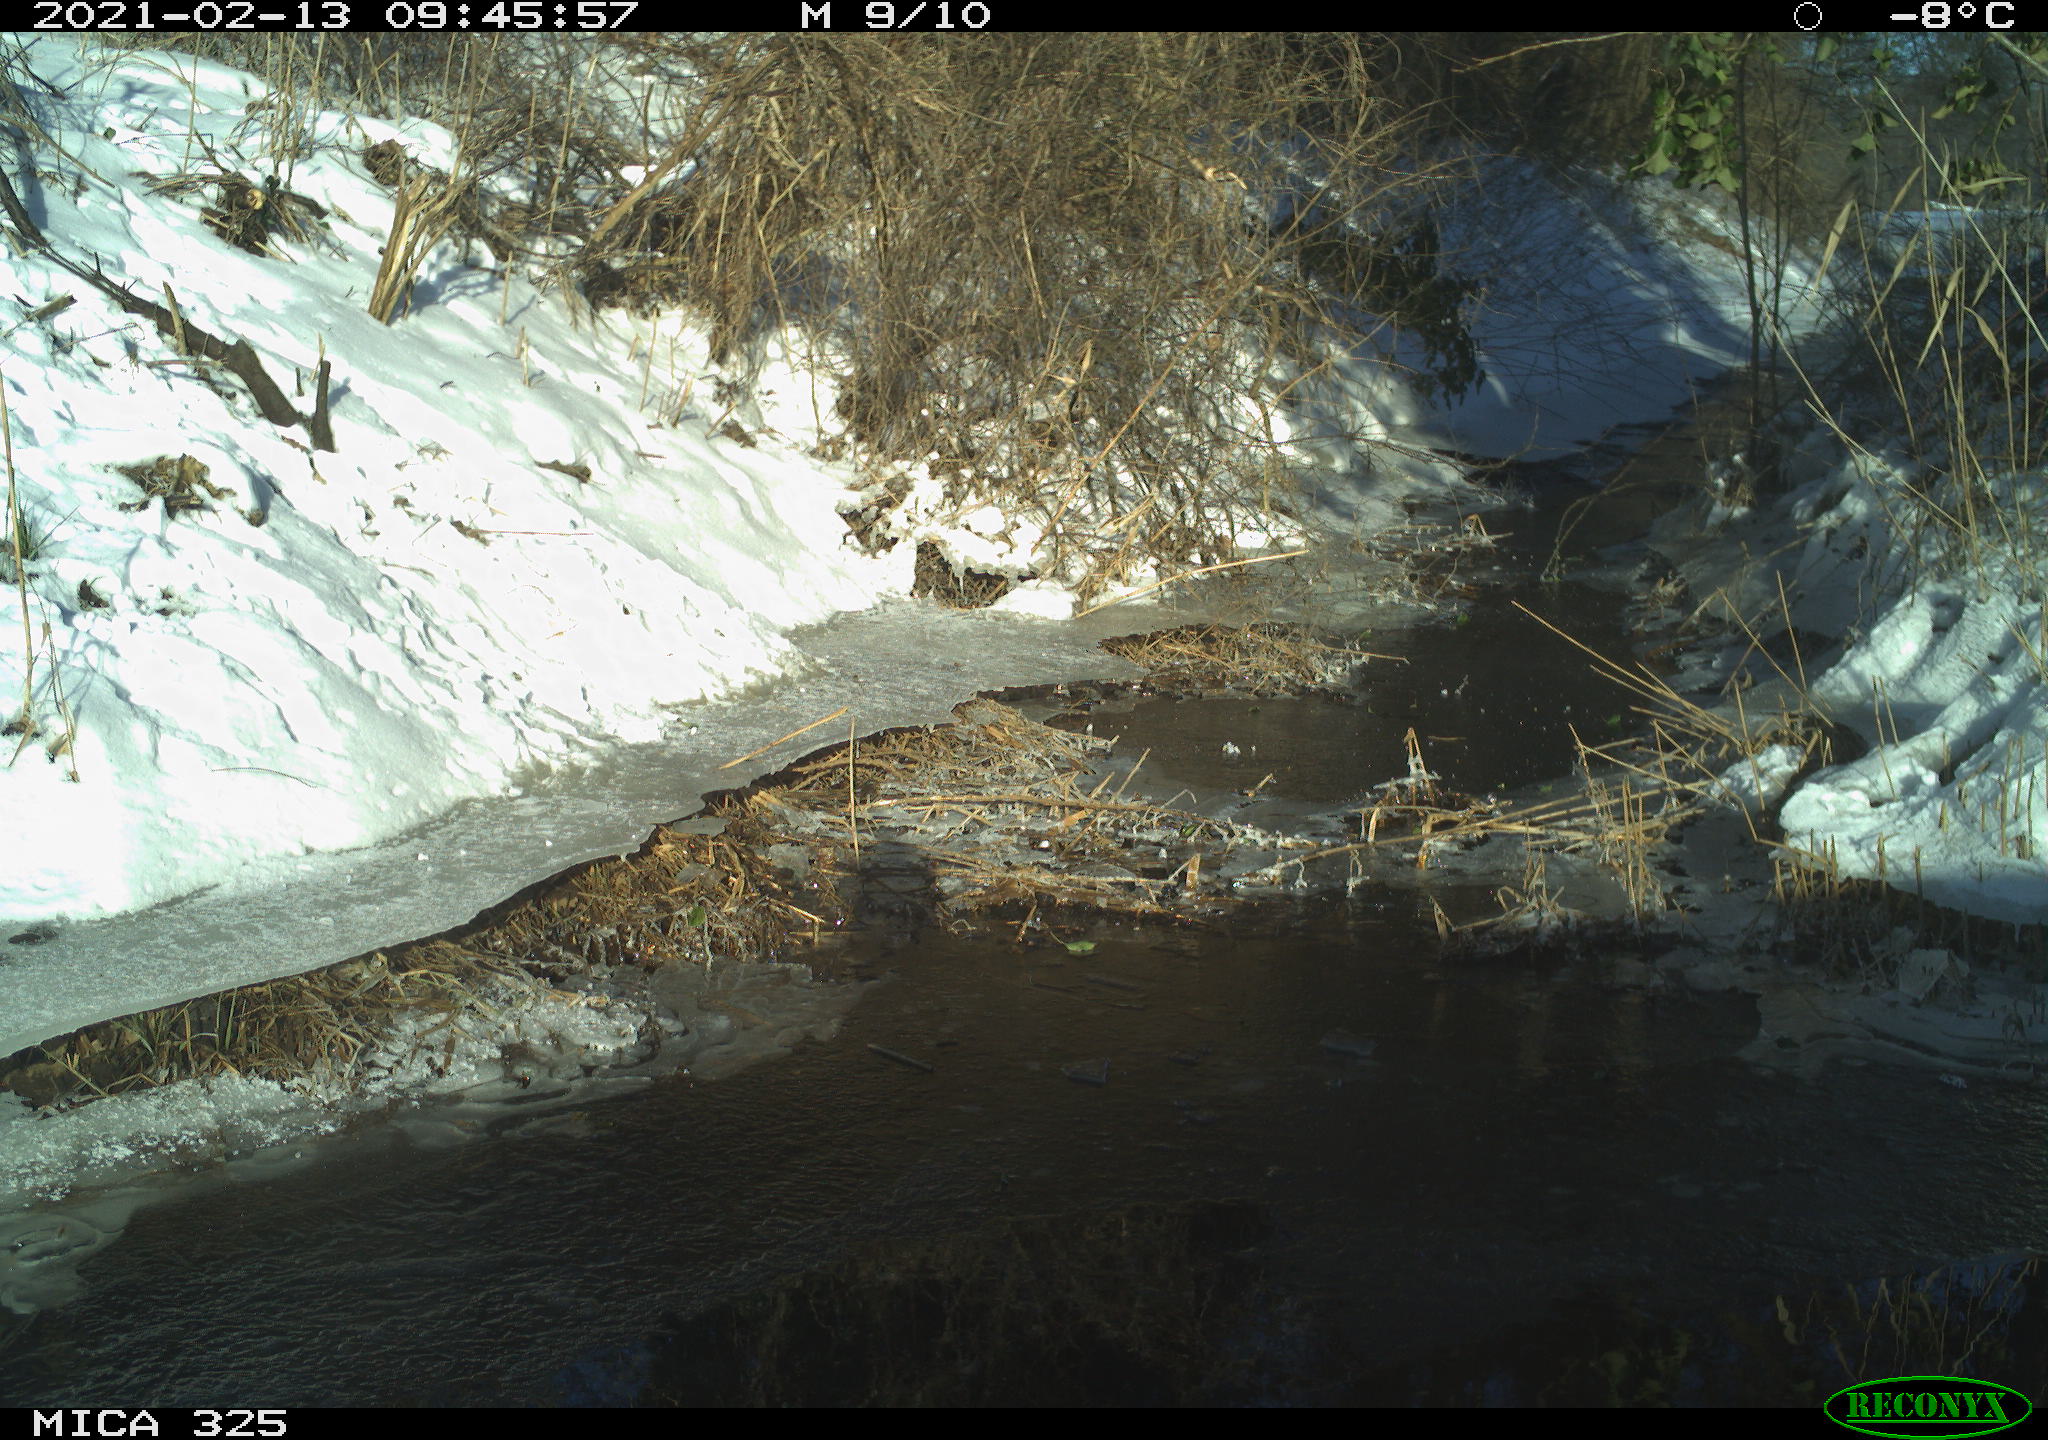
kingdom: Animalia
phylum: Chordata
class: Aves
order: Passeriformes
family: Turdidae
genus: Turdus
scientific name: Turdus merula
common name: Common blackbird
